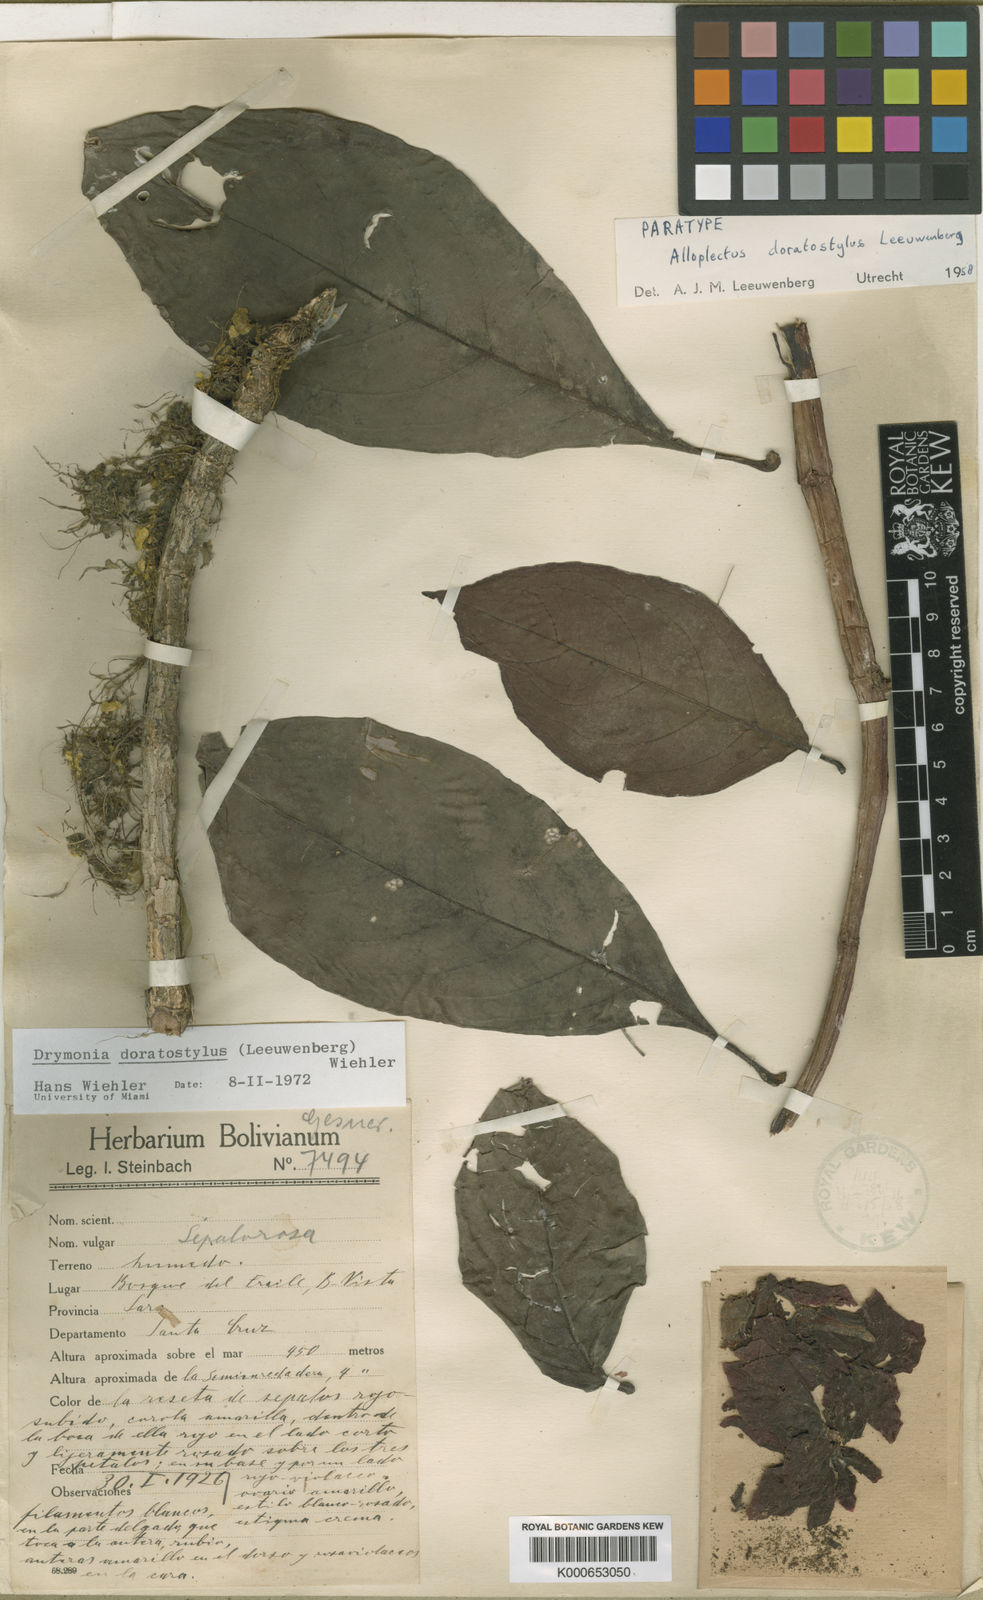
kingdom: Plantae
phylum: Tracheophyta
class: Magnoliopsida
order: Lamiales
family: Gesneriaceae
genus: Drymonia
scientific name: Drymonia doratostyla
